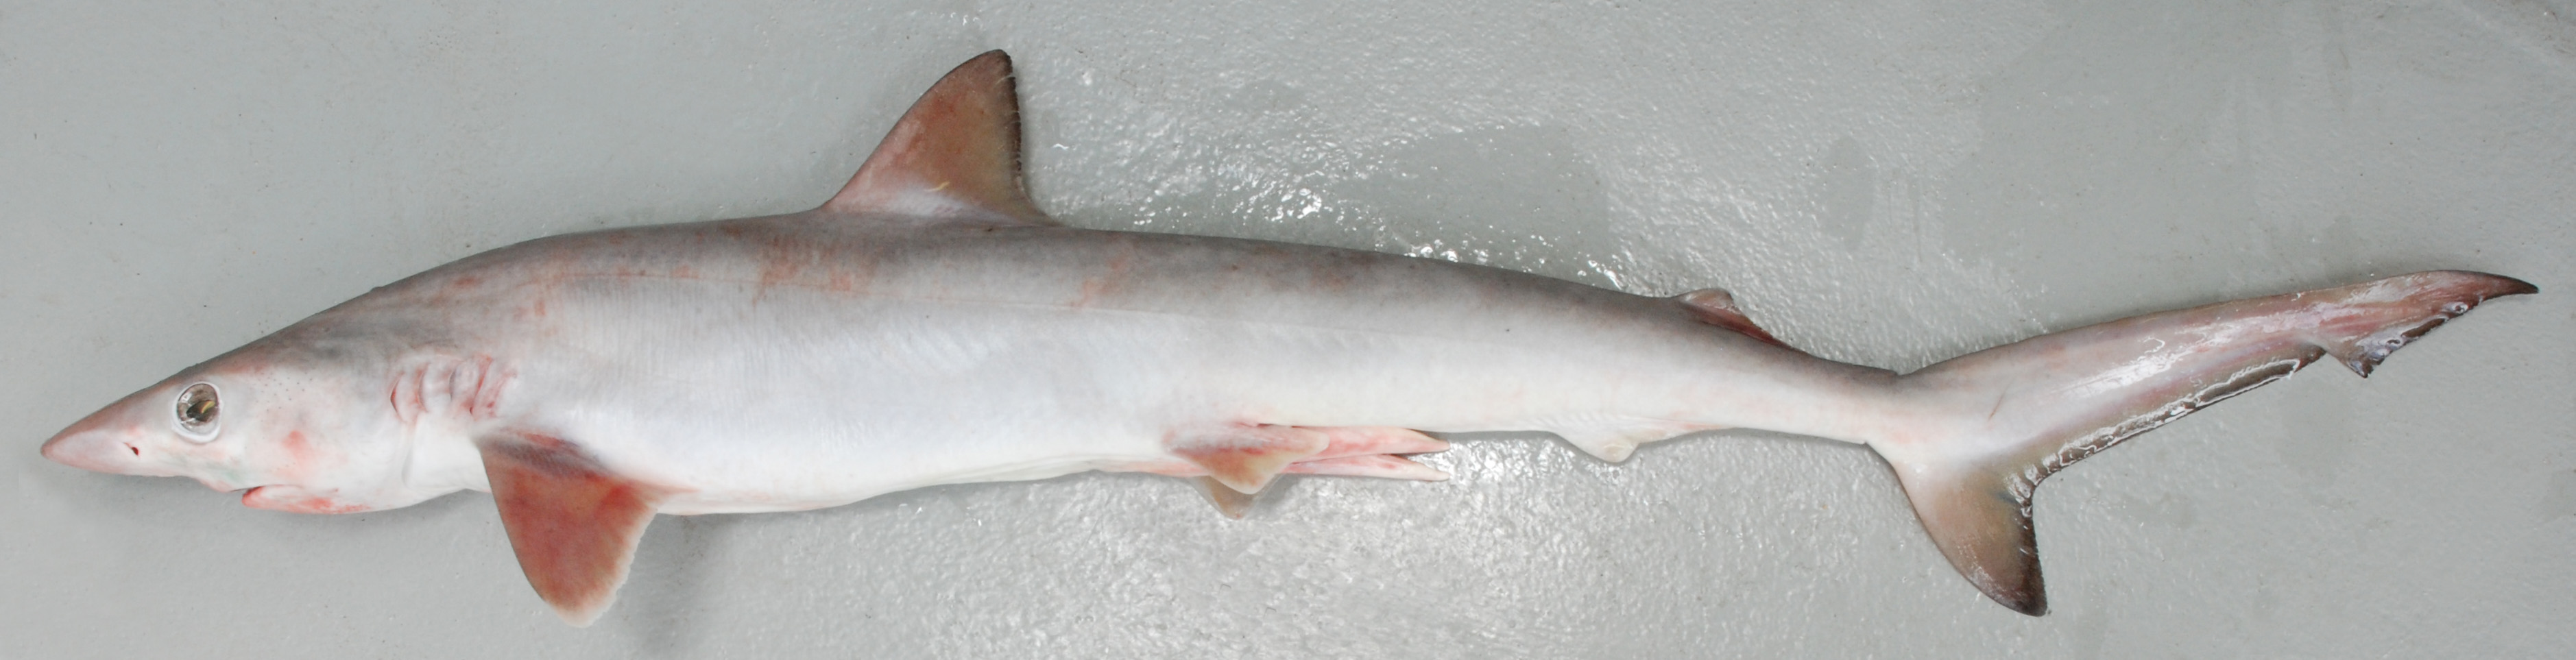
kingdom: Animalia
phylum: Chordata
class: Elasmobranchii
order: Carcharhiniformes
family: Carcharhinidae
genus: Rhizoprionodon
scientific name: Rhizoprionodon acutus
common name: Milk shark
